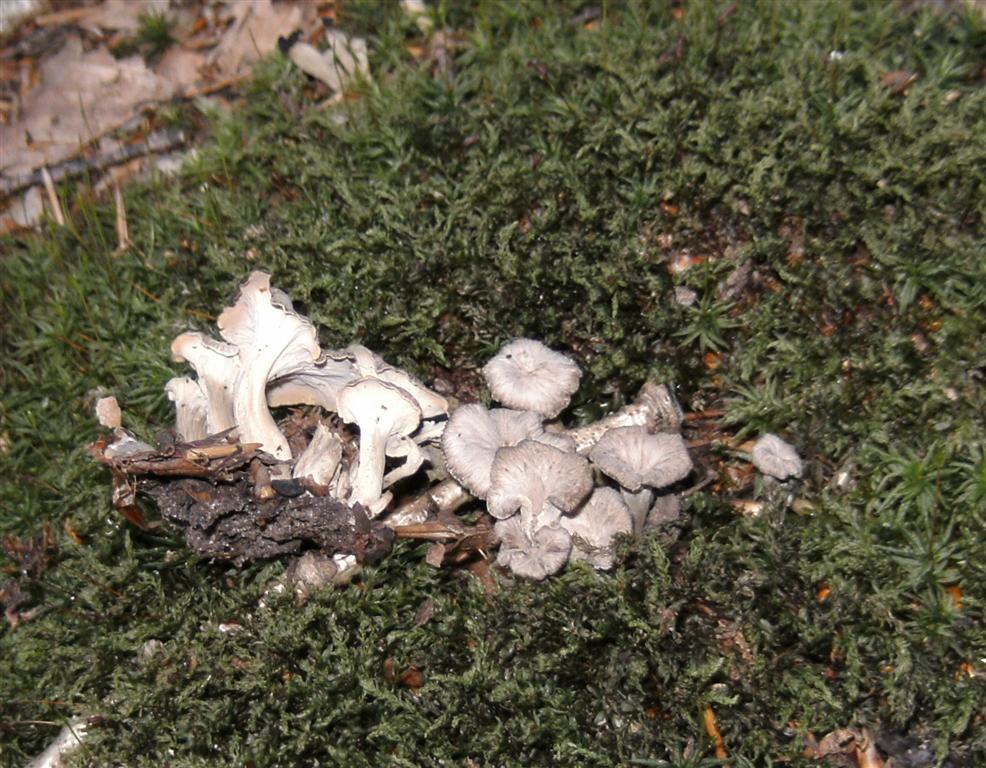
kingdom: Fungi
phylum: Basidiomycota
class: Agaricomycetes
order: Cantharellales
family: Hydnaceae
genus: Craterellus
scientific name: Craterellus undulatus
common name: liden kantarel
